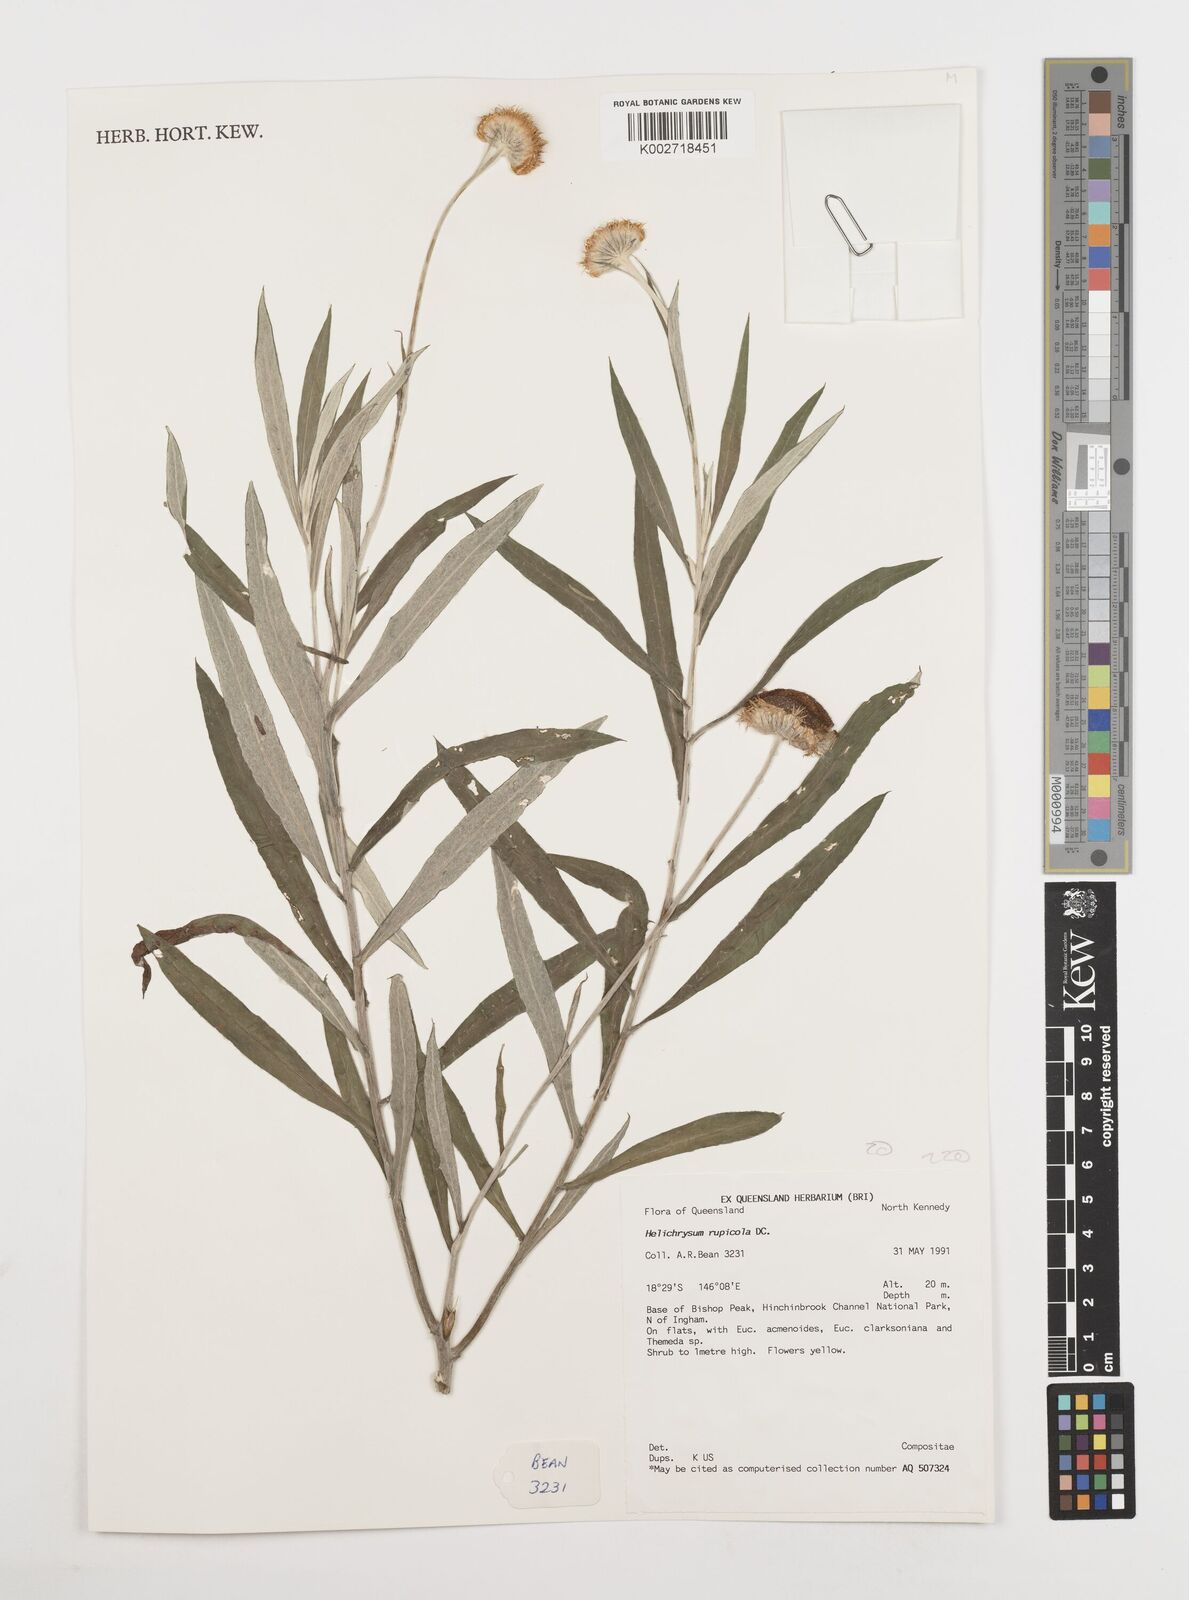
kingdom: Plantae
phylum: Tracheophyta
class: Magnoliopsida
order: Asterales
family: Asteraceae
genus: Coronidium
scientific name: Coronidium rupicola
